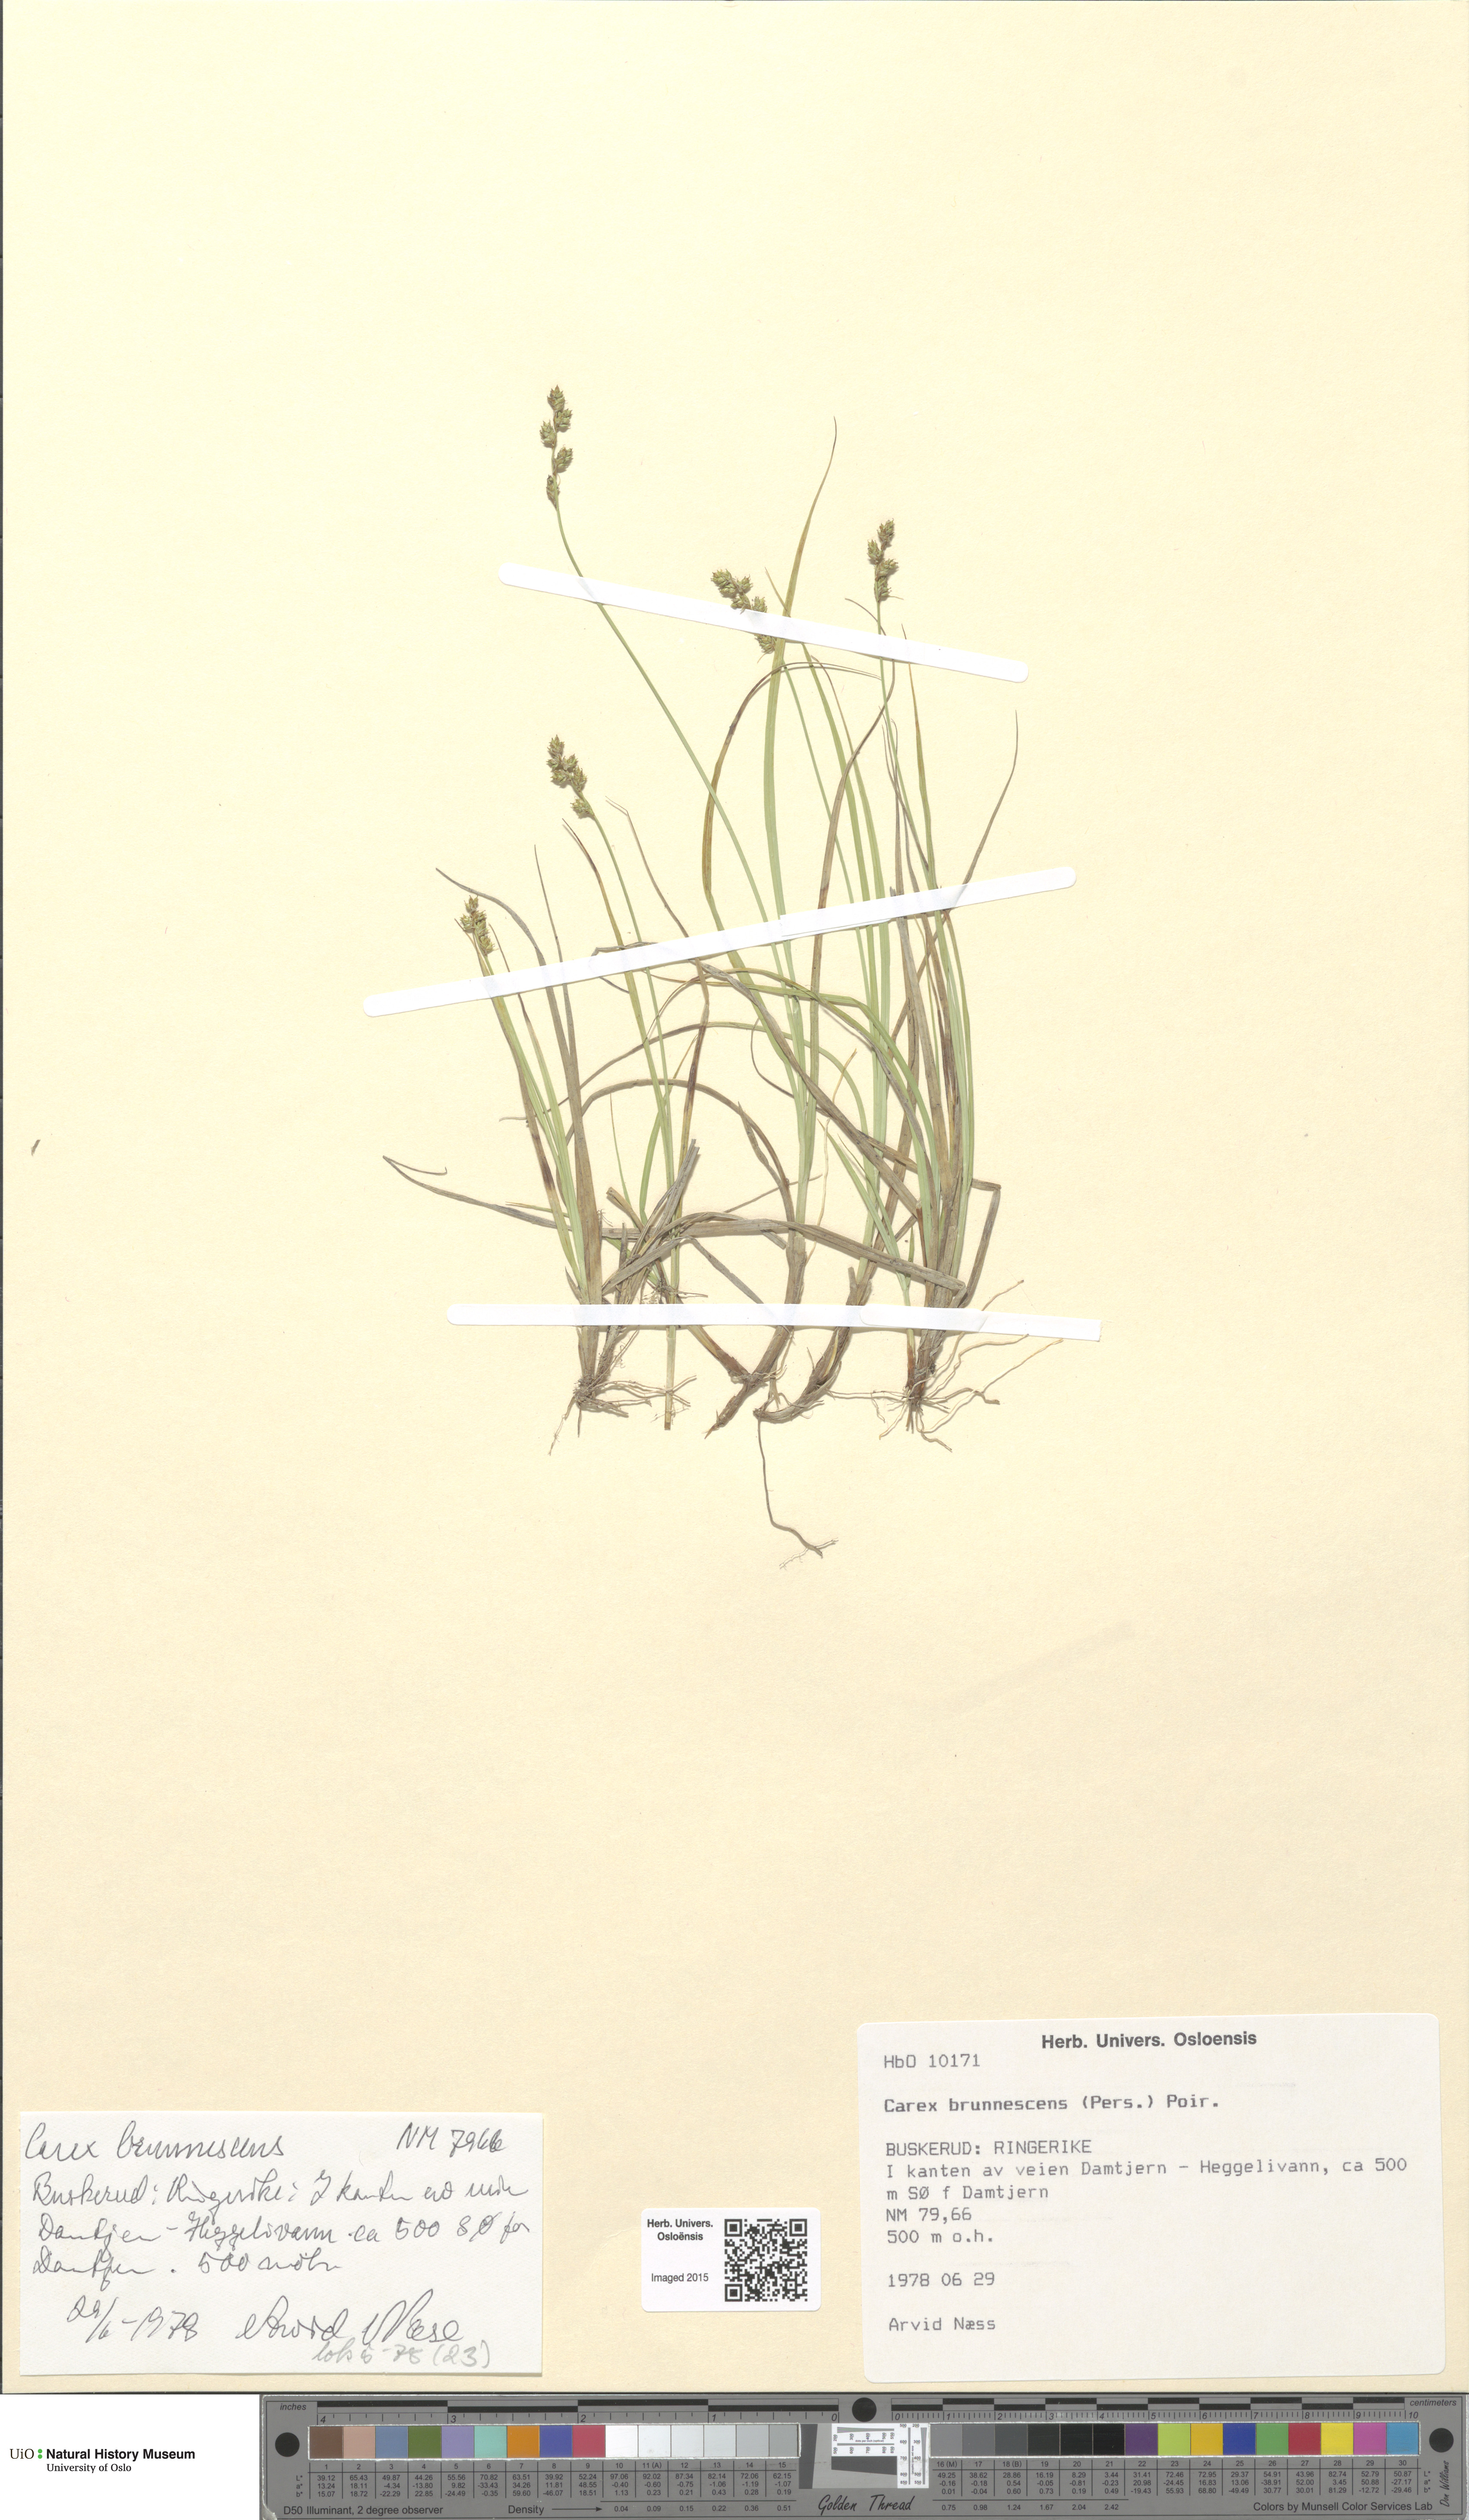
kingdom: Plantae
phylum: Tracheophyta
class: Liliopsida
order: Poales
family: Cyperaceae
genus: Carex
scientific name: Carex brunnescens
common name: Brown sedge
